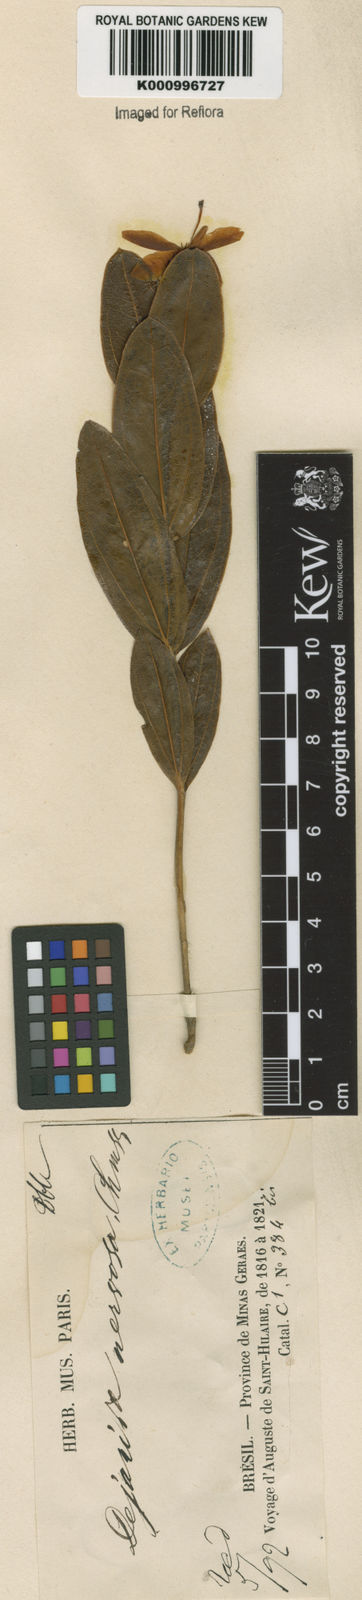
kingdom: Plantae
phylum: Tracheophyta
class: Magnoliopsida
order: Gentianales
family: Gentianaceae
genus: Deianira
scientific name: Deianira nervosa
